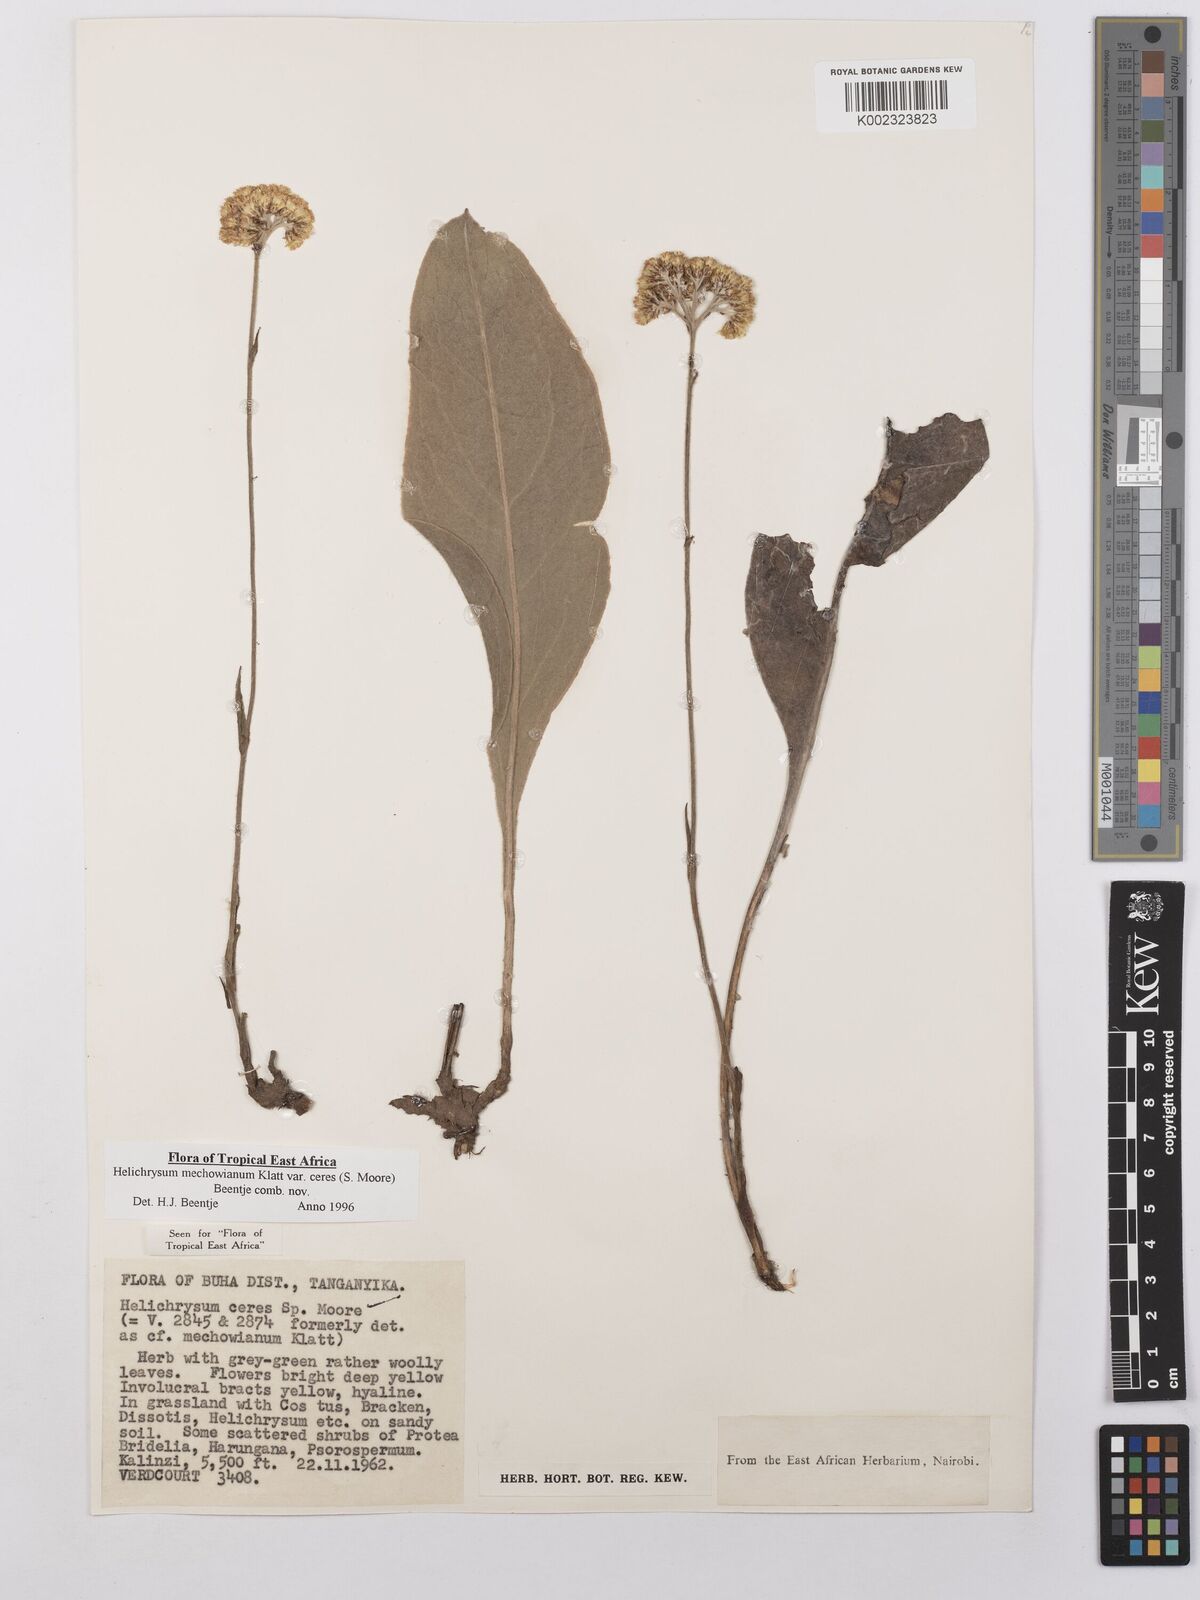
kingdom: Plantae
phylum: Tracheophyta
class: Magnoliopsida
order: Asterales
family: Asteraceae
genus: Helichrysum
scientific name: Helichrysum mechowianum
